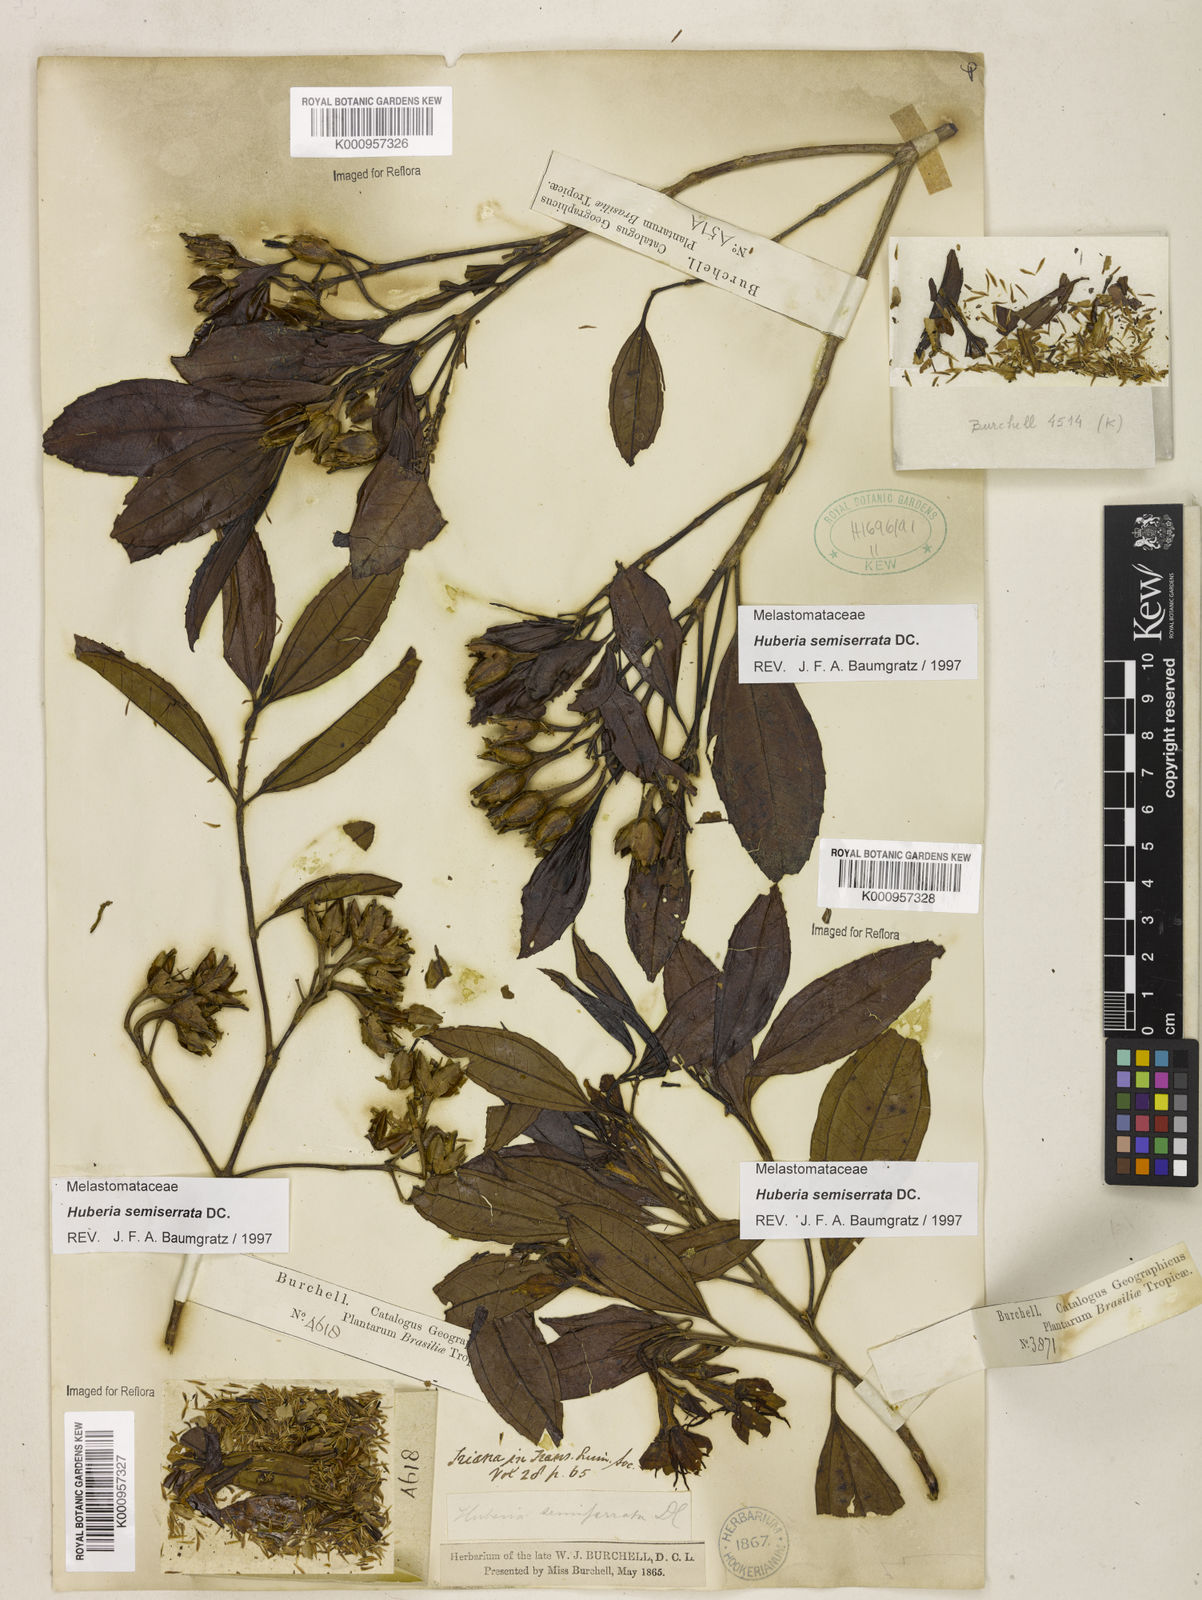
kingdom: Plantae
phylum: Tracheophyta
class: Magnoliopsida
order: Myrtales
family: Melastomataceae
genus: Huberia
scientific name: Huberia semiserrata
